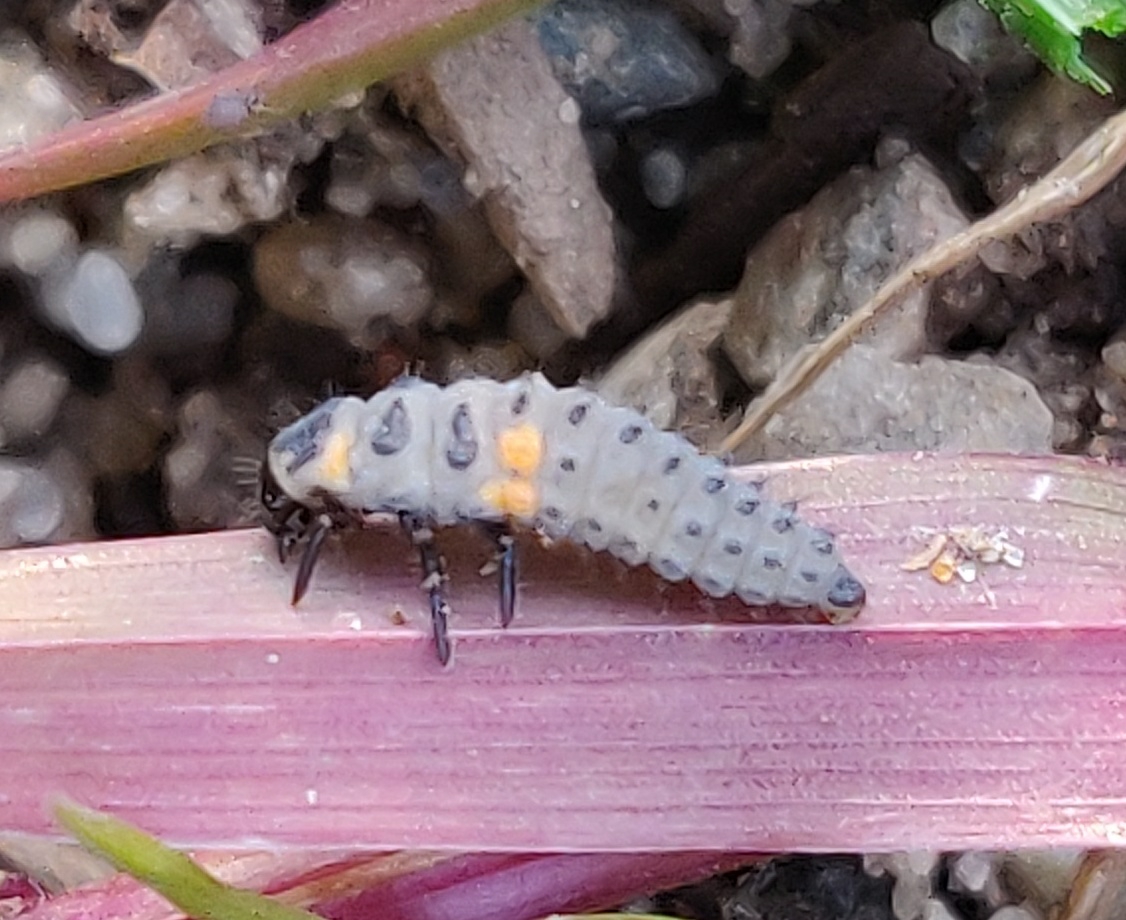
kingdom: Animalia
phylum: Arthropoda
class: Insecta
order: Coleoptera
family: Coccinellidae
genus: Coccinella
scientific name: Coccinella septempunctata
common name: Syvplettet mariehøne
